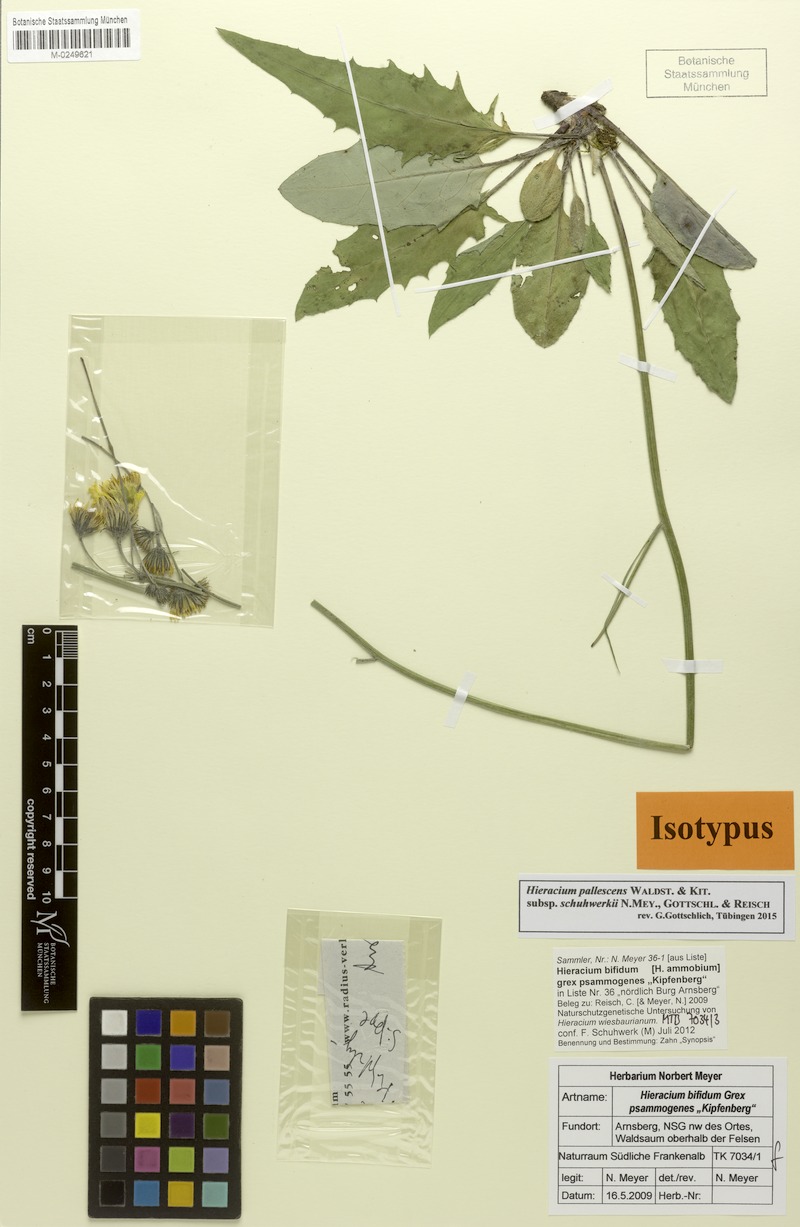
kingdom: Plantae
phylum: Tracheophyta
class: Magnoliopsida
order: Asterales
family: Asteraceae
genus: Hieracium
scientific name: Hieracium pallescens
